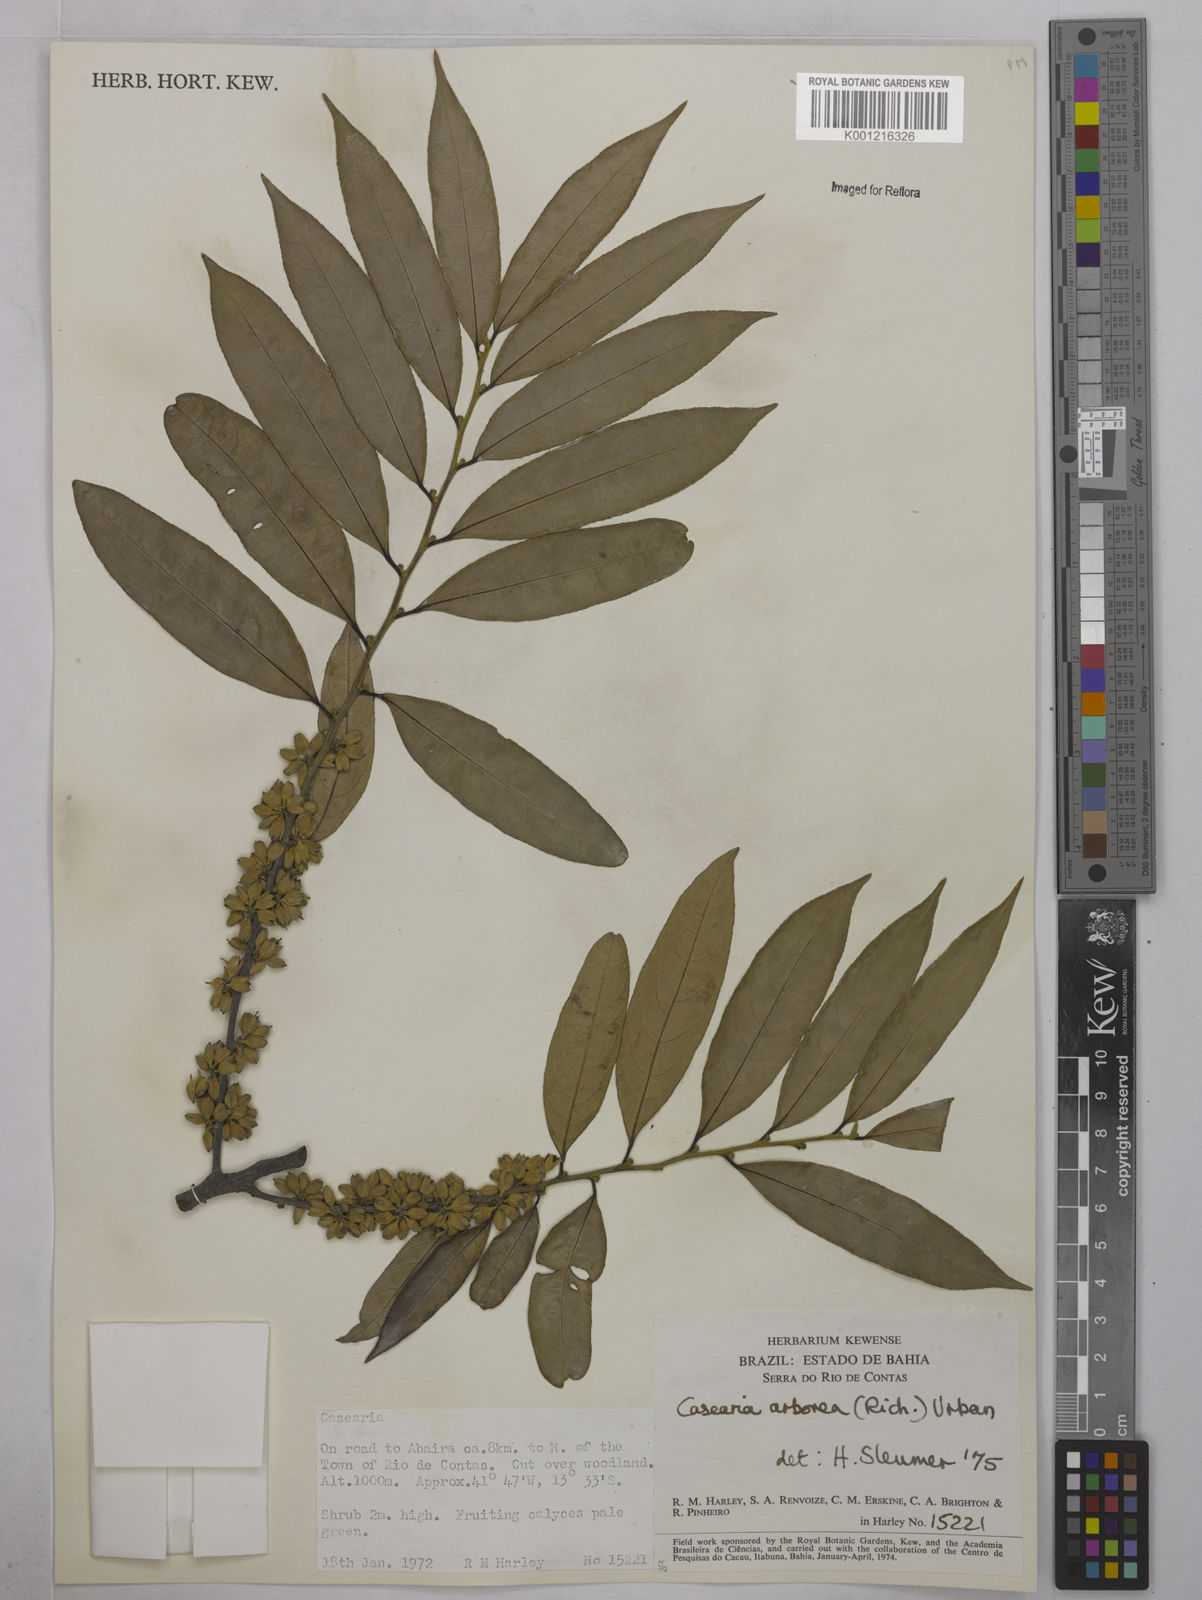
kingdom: Plantae
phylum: Tracheophyta
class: Magnoliopsida
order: Malpighiales
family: Salicaceae
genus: Casearia
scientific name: Casearia arborea
